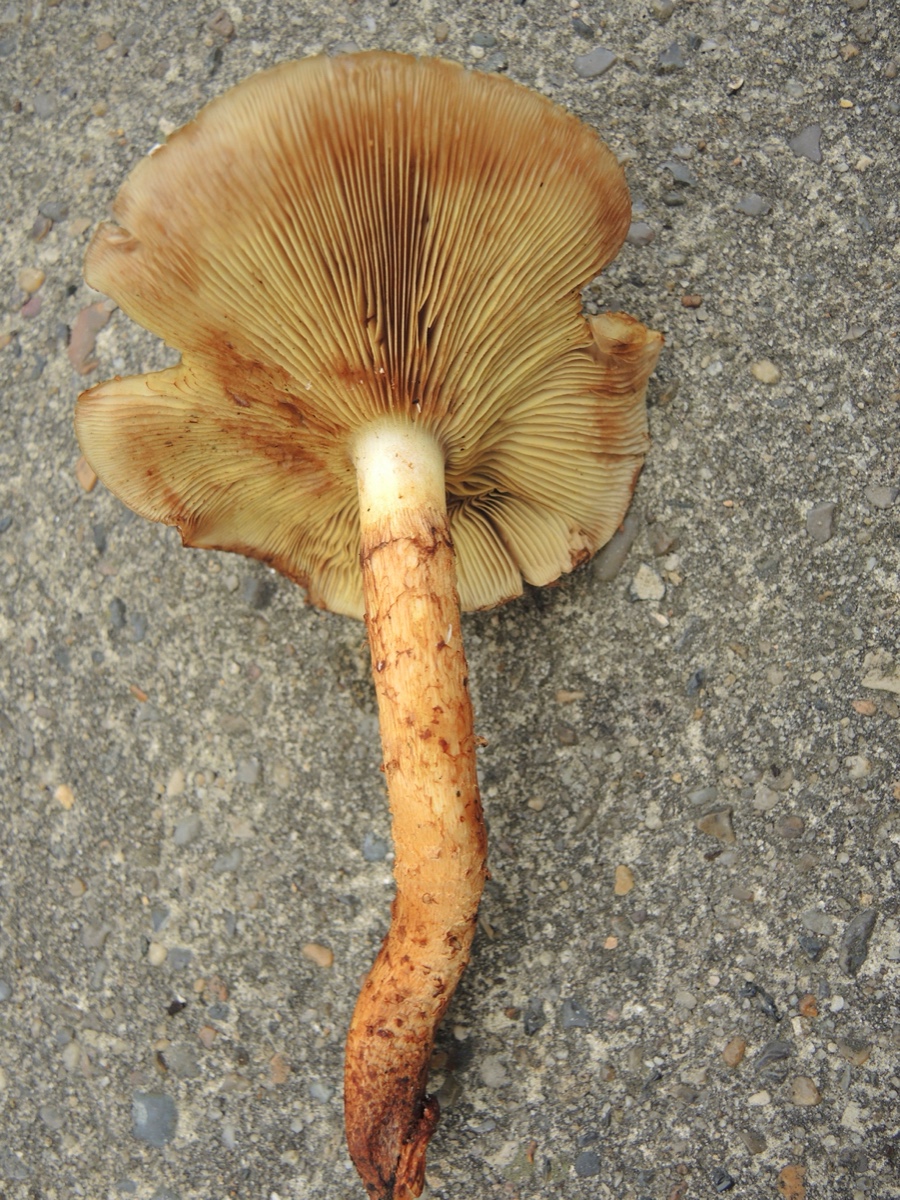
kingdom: Fungi
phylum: Basidiomycota
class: Agaricomycetes
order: Agaricales
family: Strophariaceae
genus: Pholiota
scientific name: Pholiota squarrosa
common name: krumskællet skælhat
